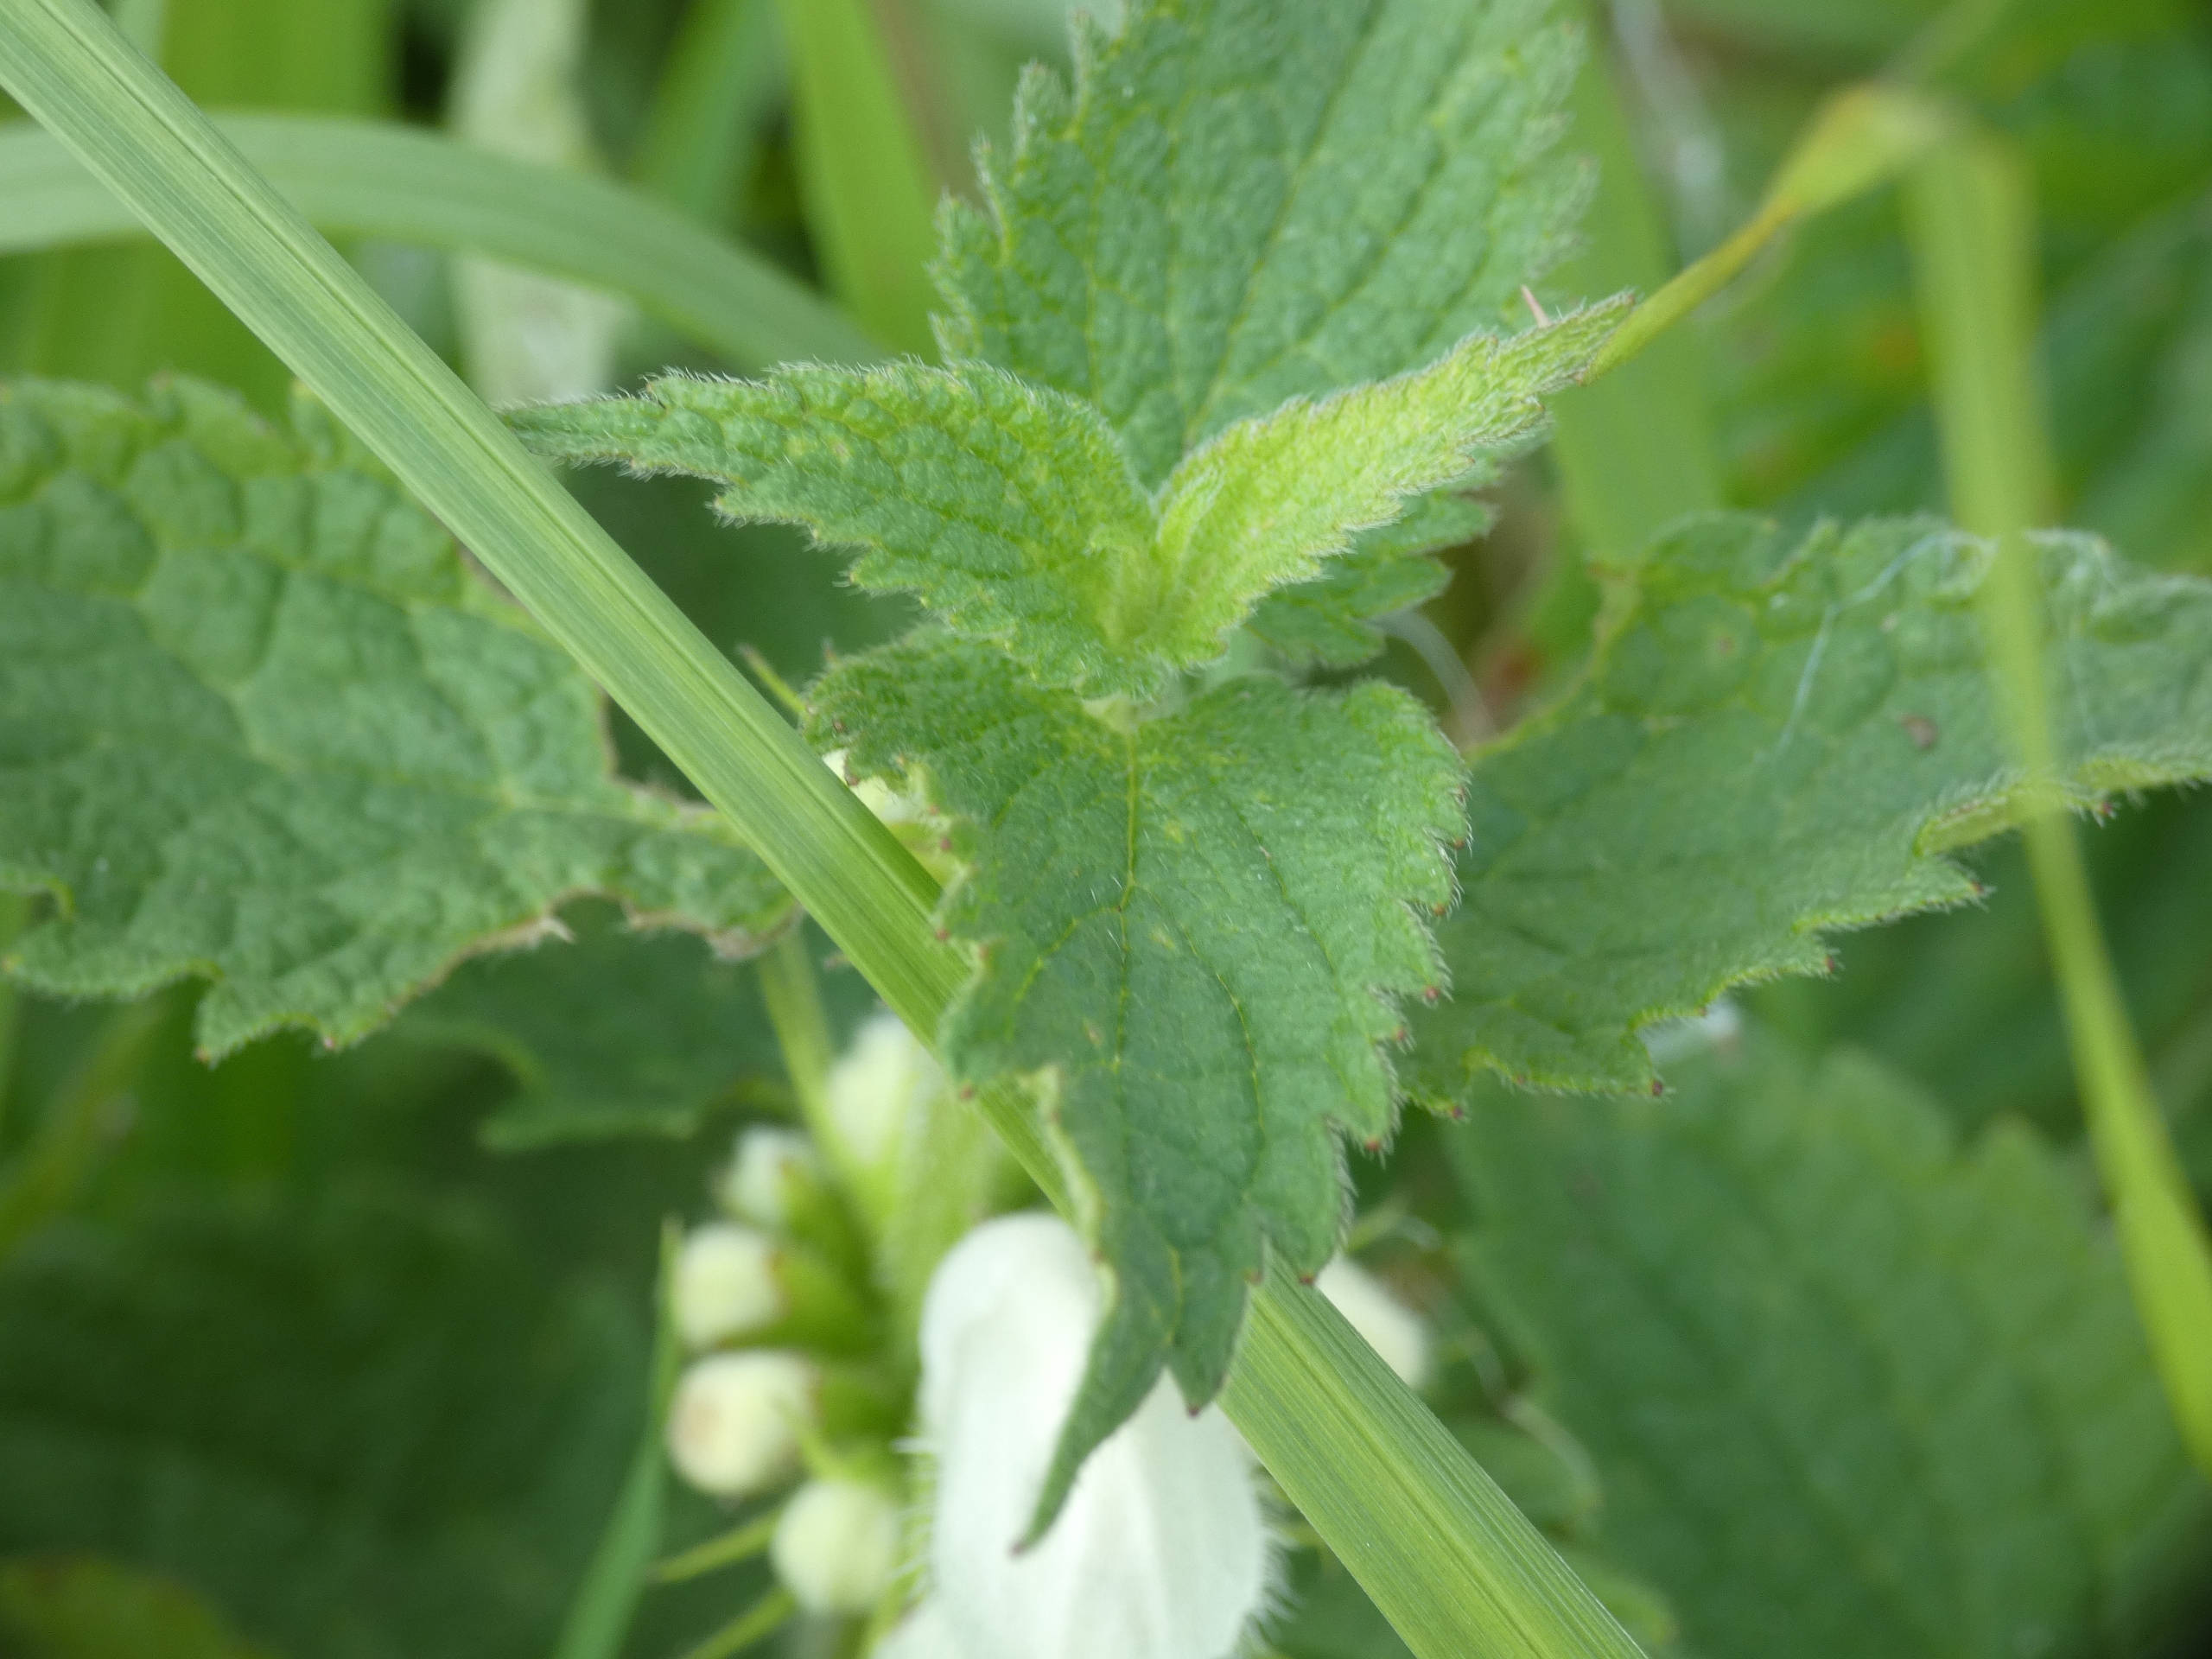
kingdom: Plantae
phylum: Tracheophyta
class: Magnoliopsida
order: Lamiales
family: Lamiaceae
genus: Lamium
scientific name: Lamium album
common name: Døvnælde
